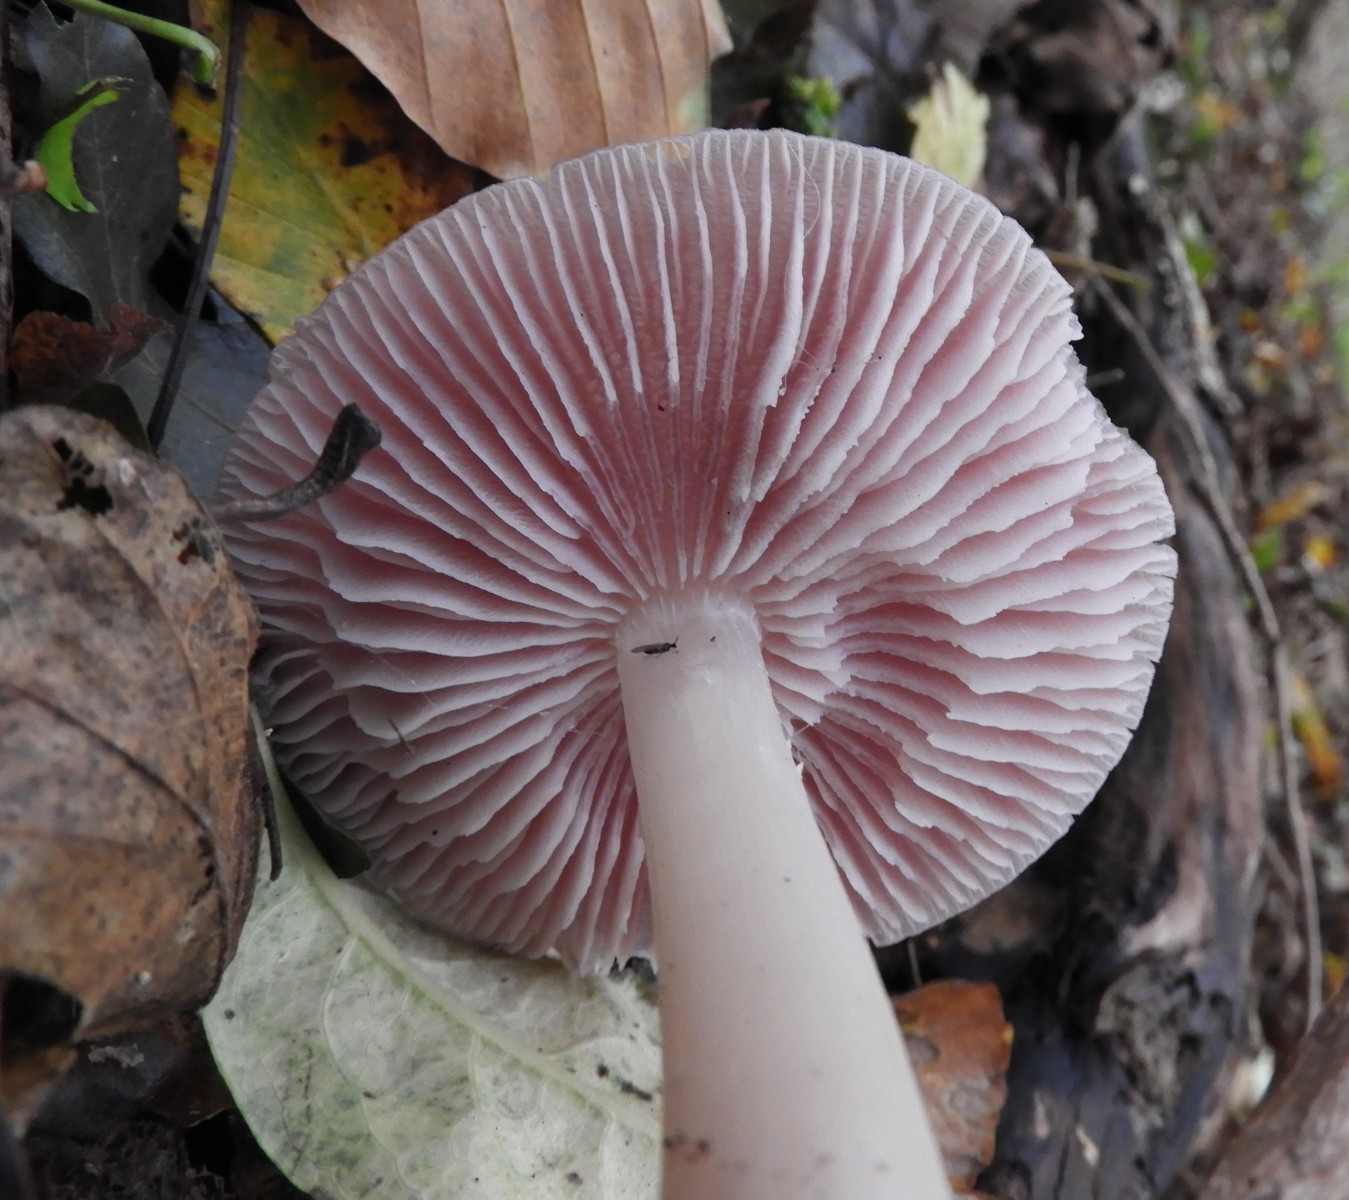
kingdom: Fungi
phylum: Basidiomycota
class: Agaricomycetes
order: Agaricales
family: Mycenaceae
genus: Mycena
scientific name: Mycena rosea
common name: rosa huesvamp
